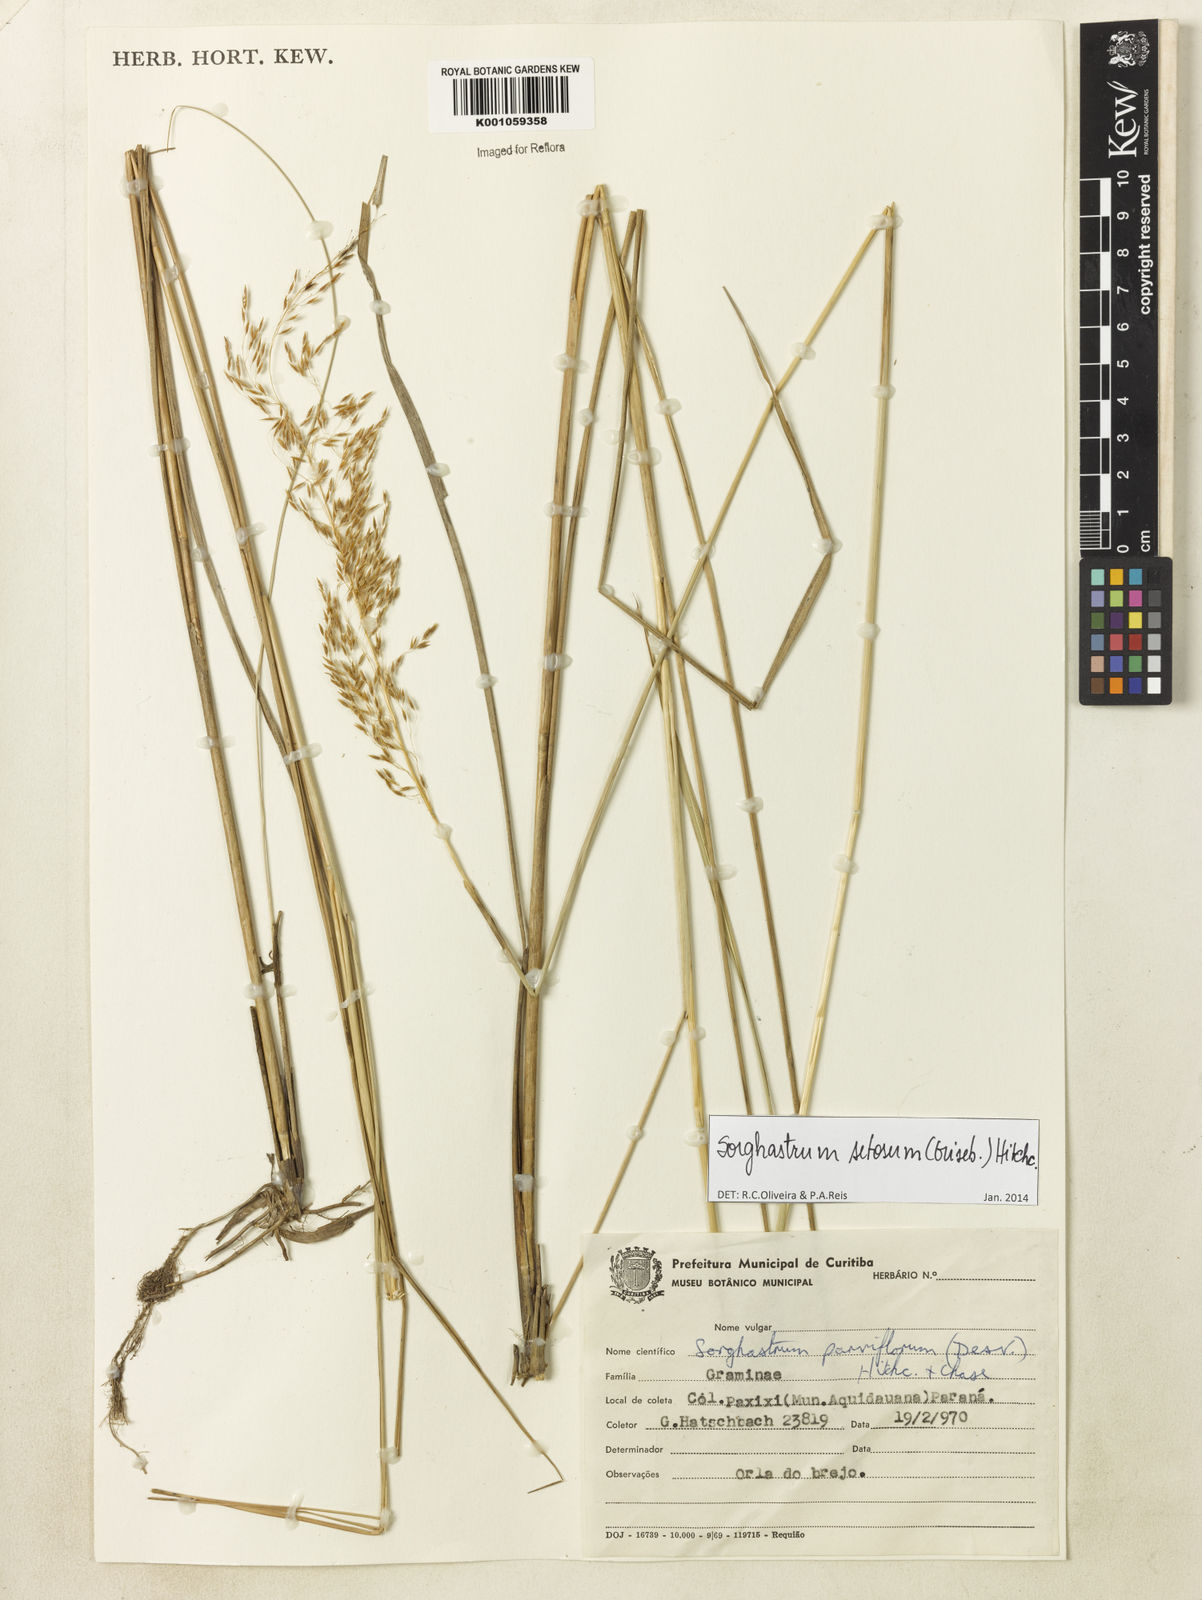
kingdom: Plantae
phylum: Tracheophyta
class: Liliopsida
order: Poales
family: Poaceae
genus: Sorghastrum
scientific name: Sorghastrum setosum
